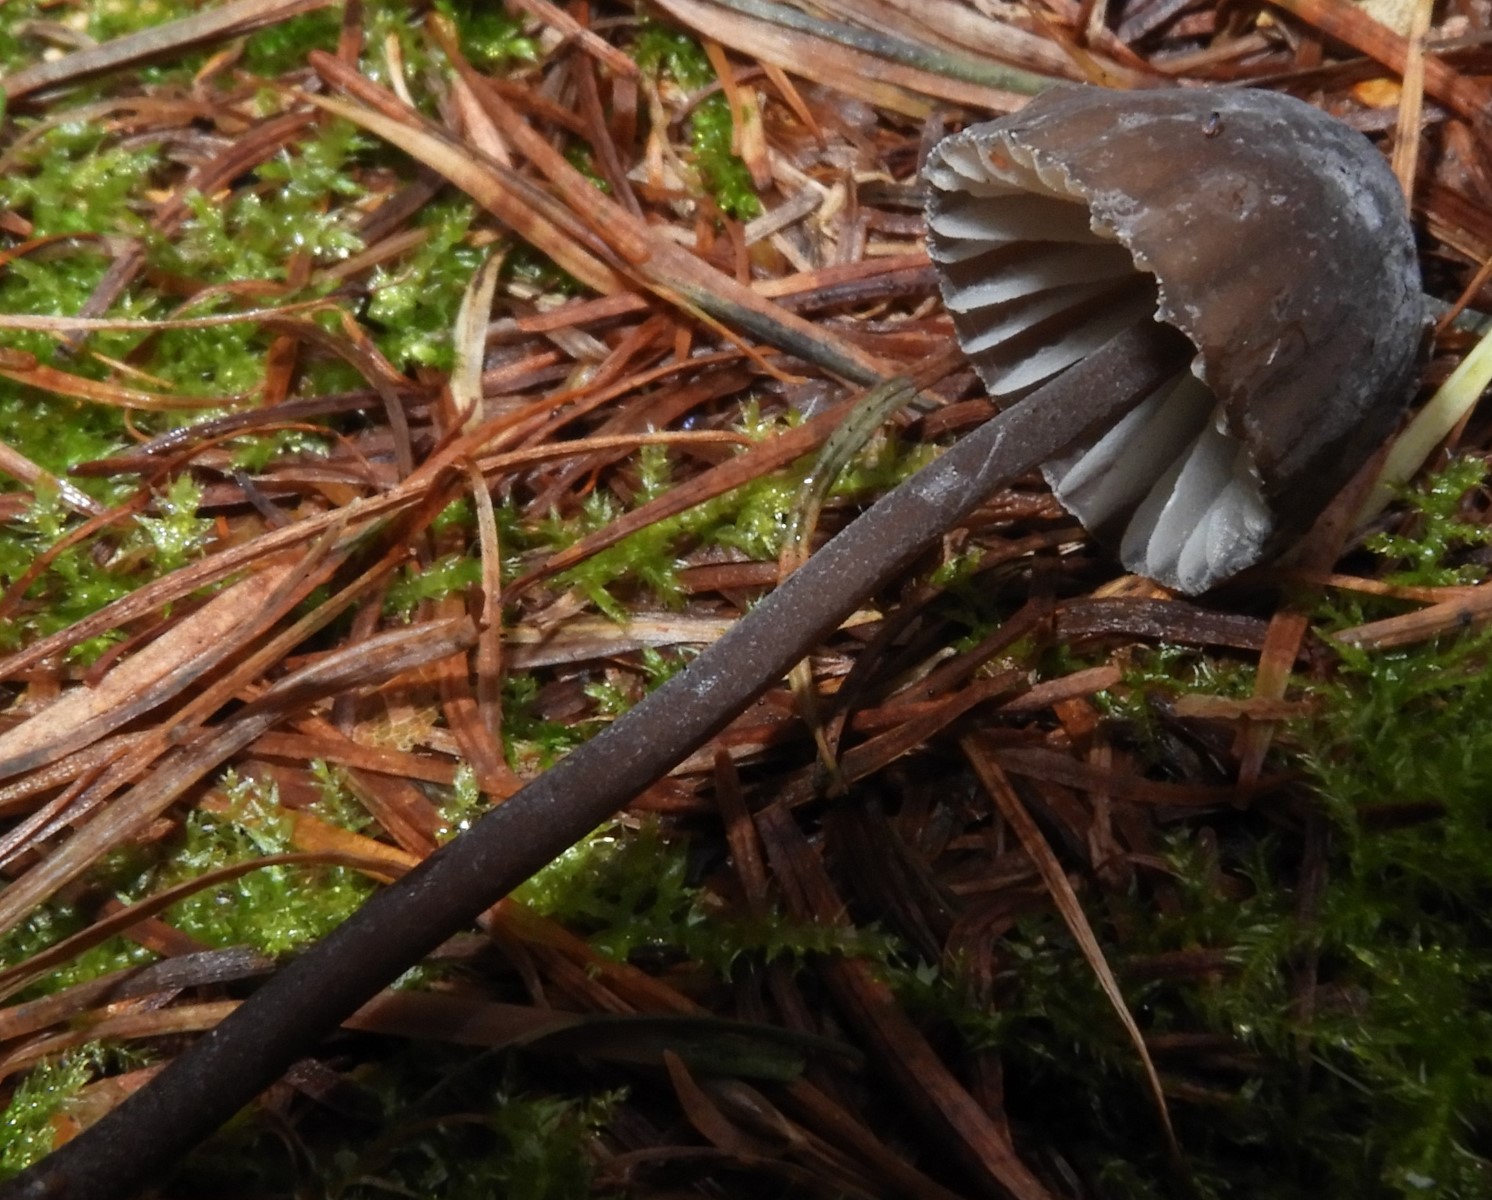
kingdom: Fungi
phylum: Basidiomycota
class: Agaricomycetes
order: Agaricales
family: Mycenaceae
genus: Mycena
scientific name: Mycena galopus
